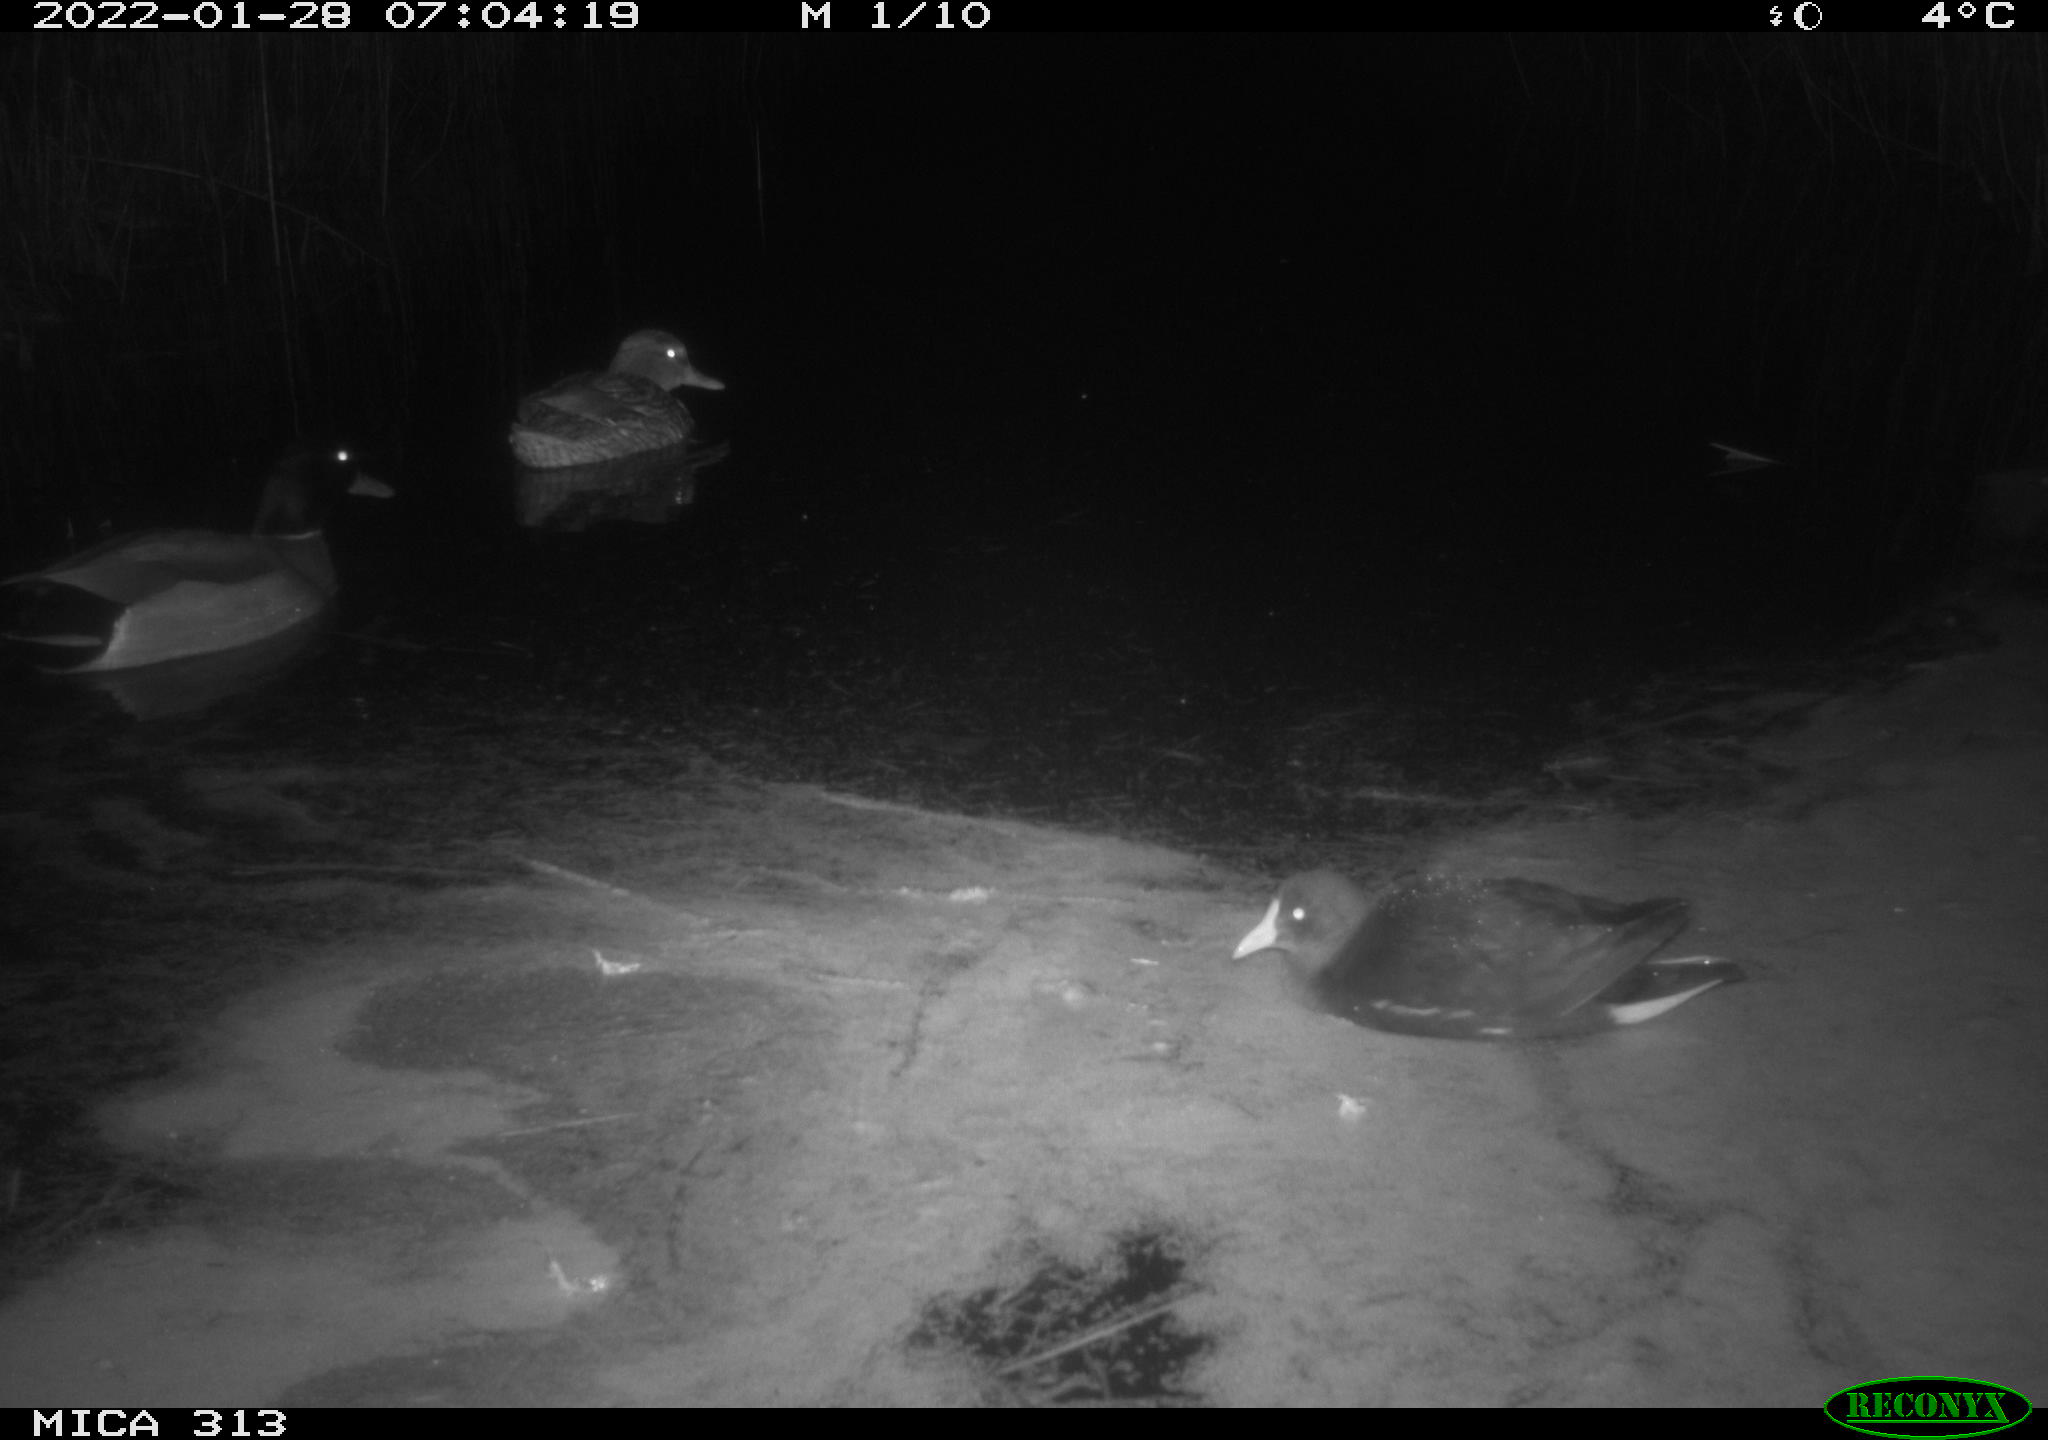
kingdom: Animalia
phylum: Chordata
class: Aves
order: Anseriformes
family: Anatidae
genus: Anas
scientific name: Anas
